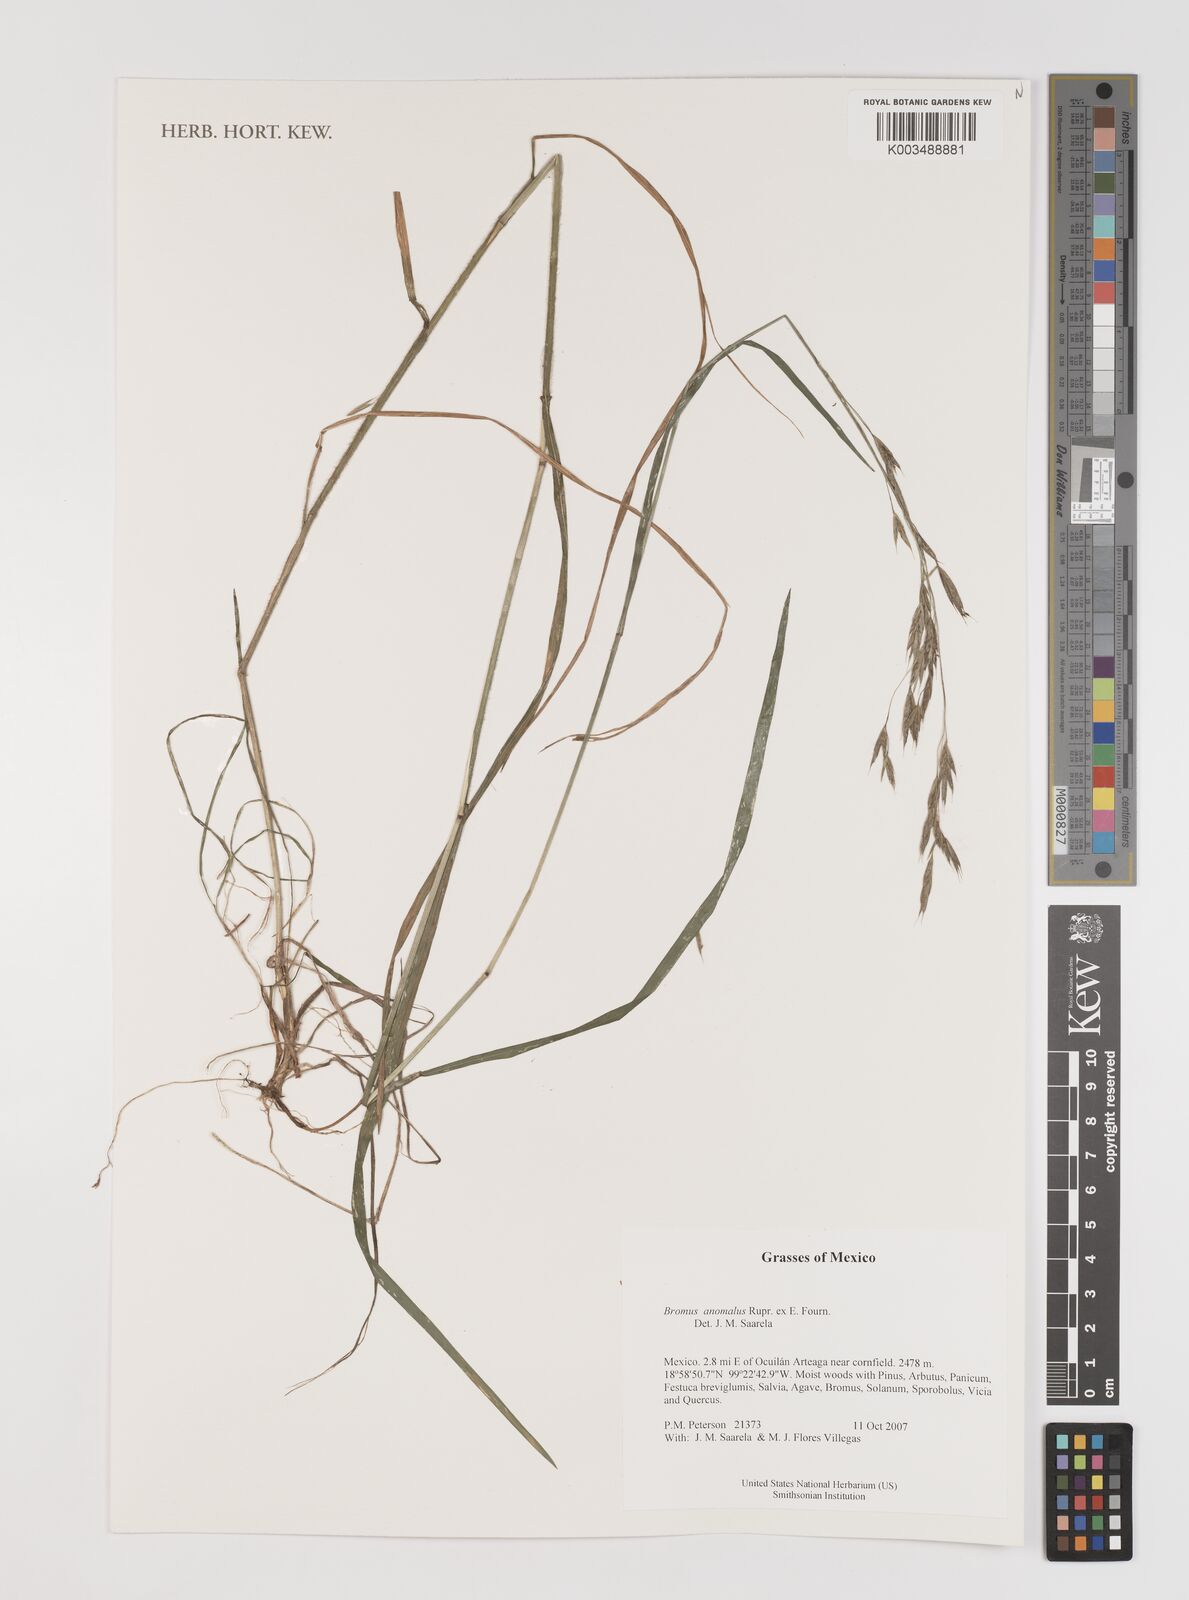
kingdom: Plantae
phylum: Tracheophyta
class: Liliopsida
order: Poales
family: Poaceae
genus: Bromus
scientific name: Bromus anomalus
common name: Nodding brome
